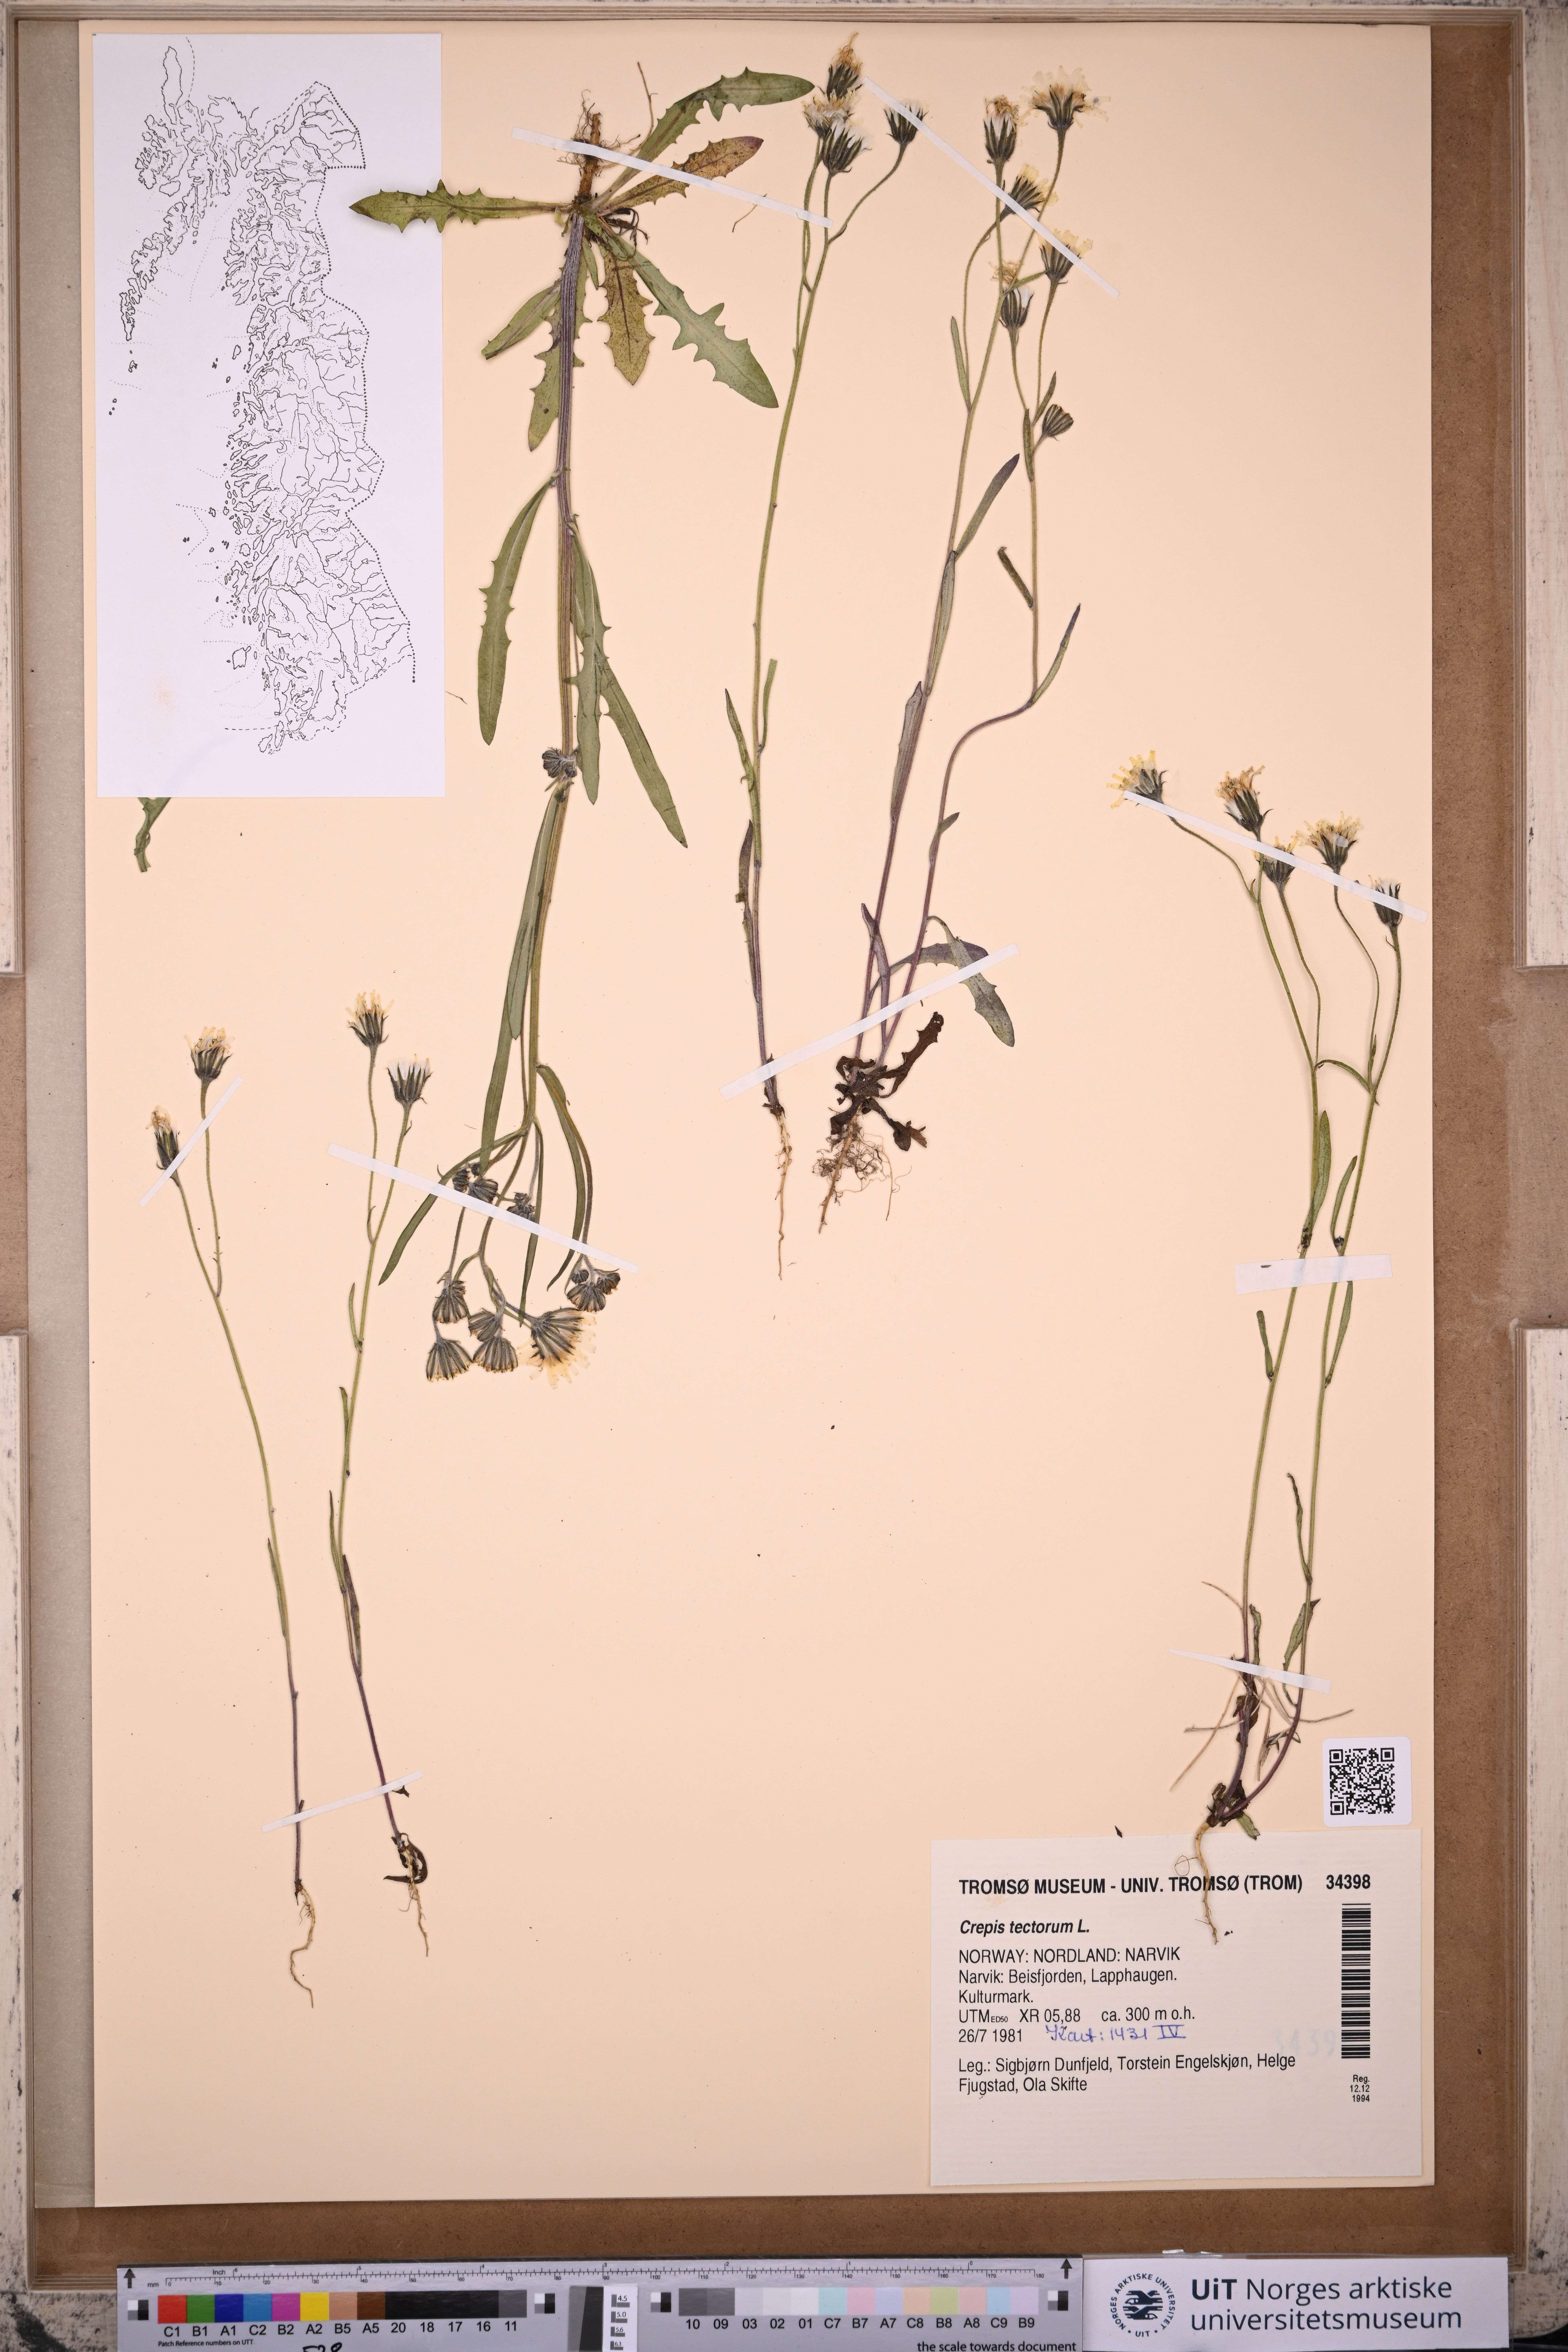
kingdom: Plantae
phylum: Tracheophyta
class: Magnoliopsida
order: Asterales
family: Asteraceae
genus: Crepis
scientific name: Crepis tectorum
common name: Narrow-leaved hawk's-beard
